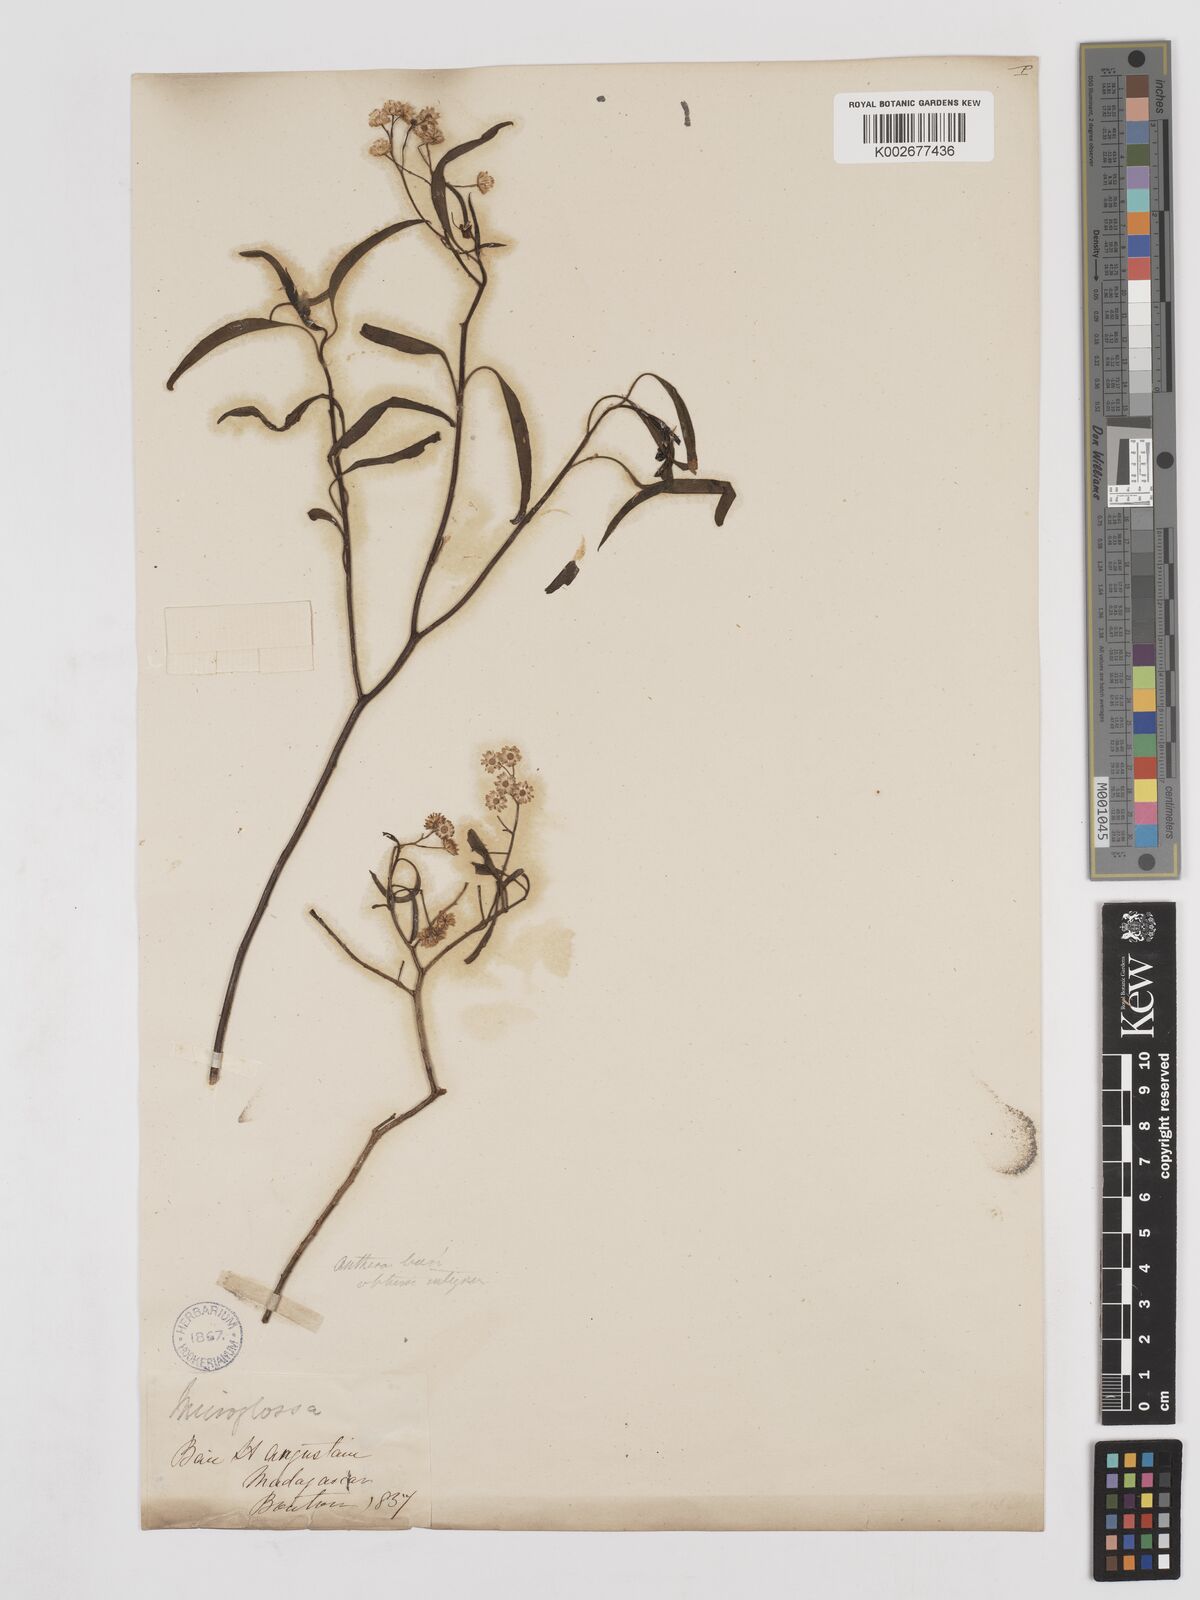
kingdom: Plantae
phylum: Tracheophyta
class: Magnoliopsida
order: Asterales
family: Asteraceae
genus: Psiadia
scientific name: Psiadia linearifolia
